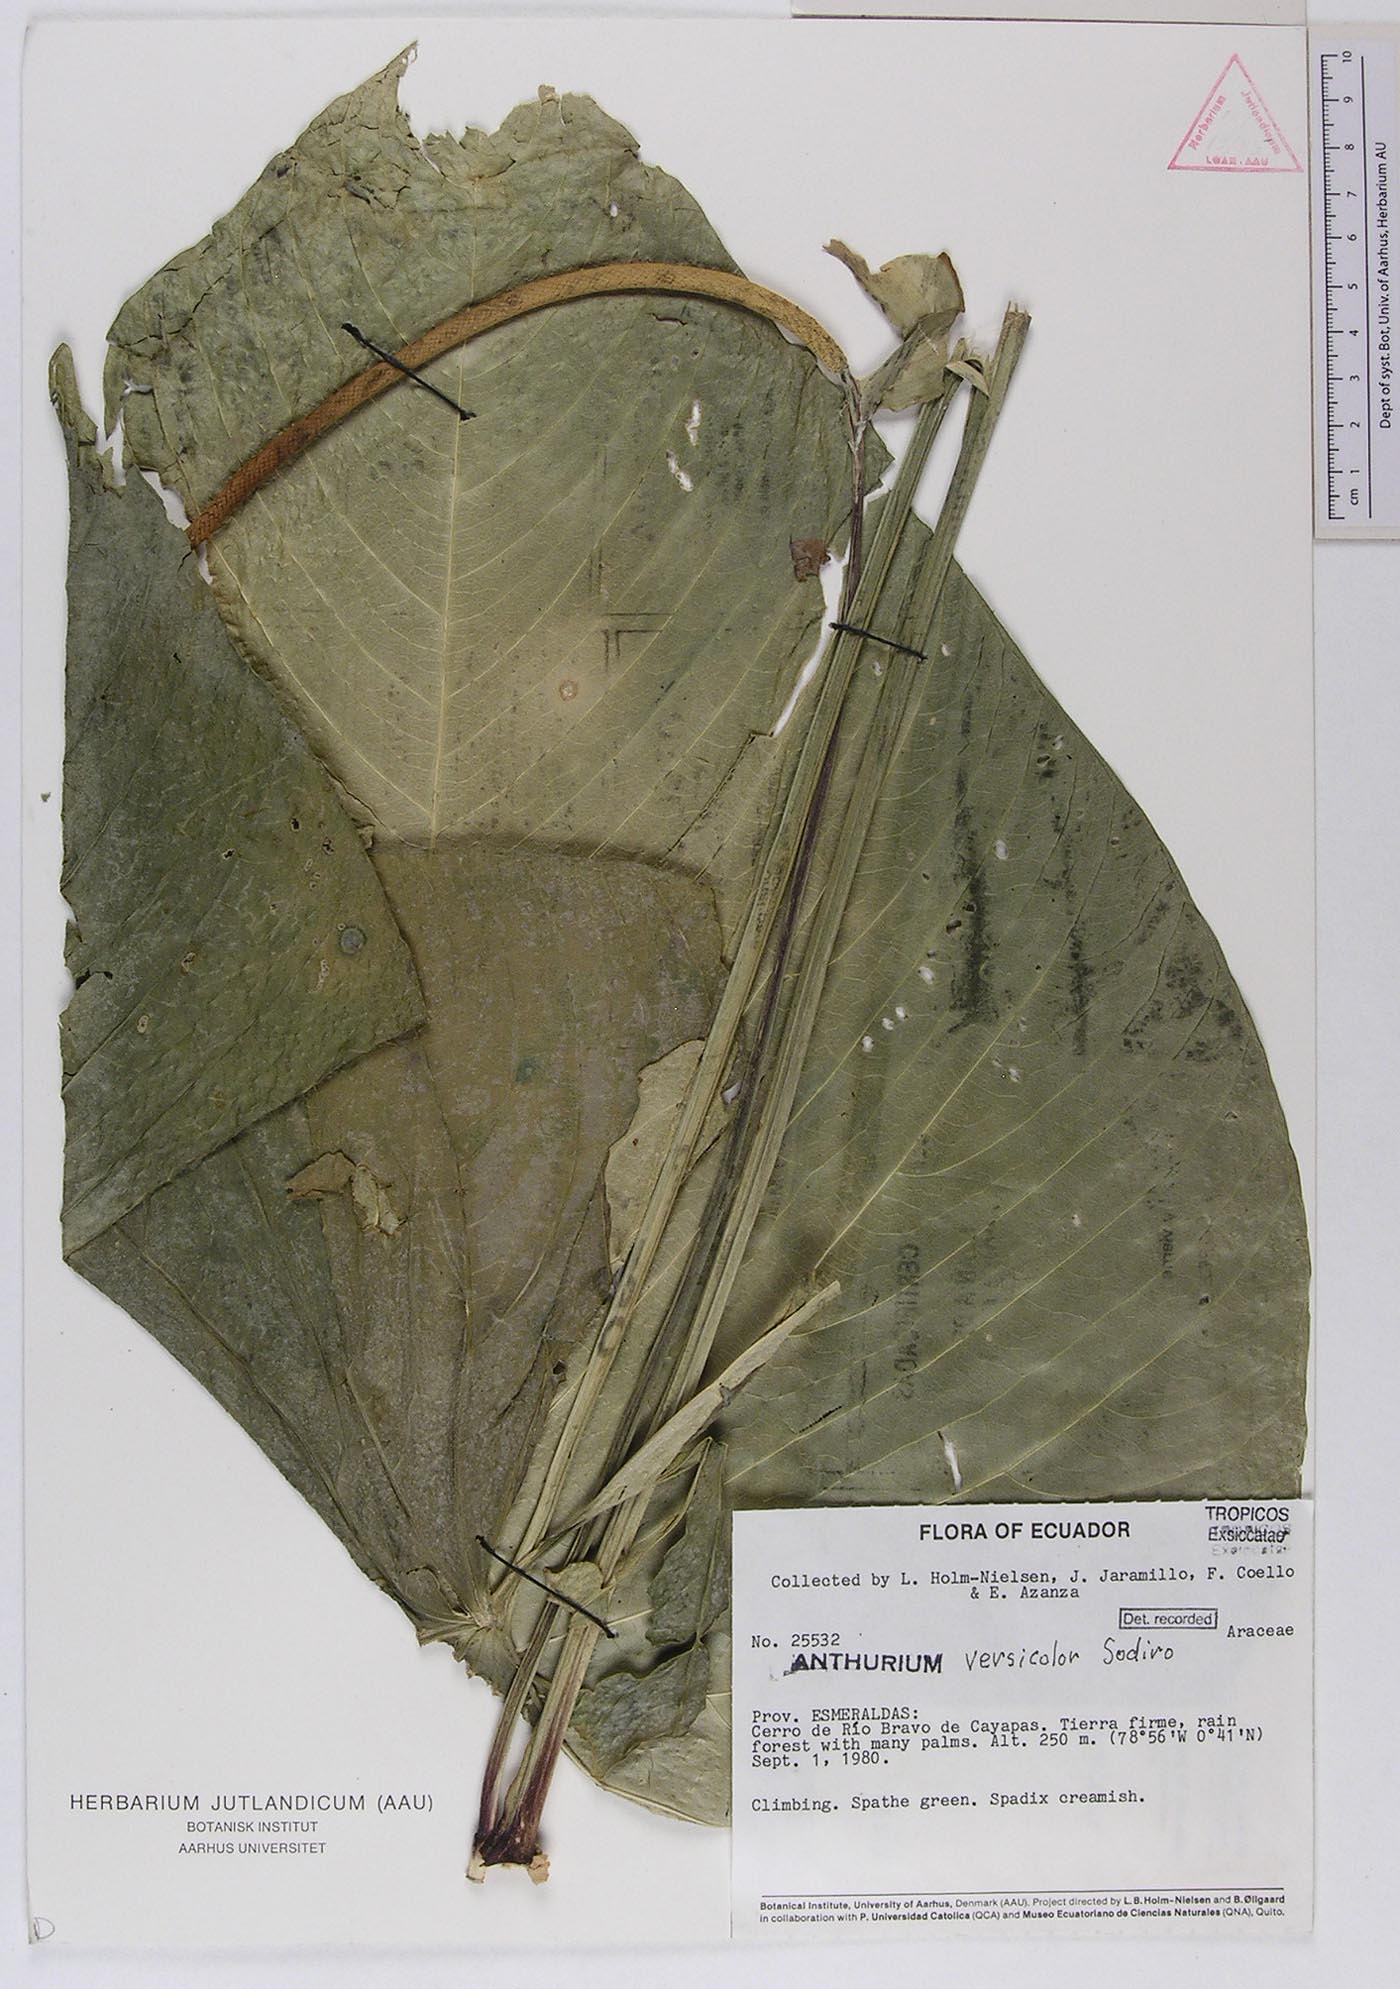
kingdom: Plantae
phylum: Tracheophyta
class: Liliopsida
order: Alismatales
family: Araceae
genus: Anthurium
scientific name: Anthurium versicolor
